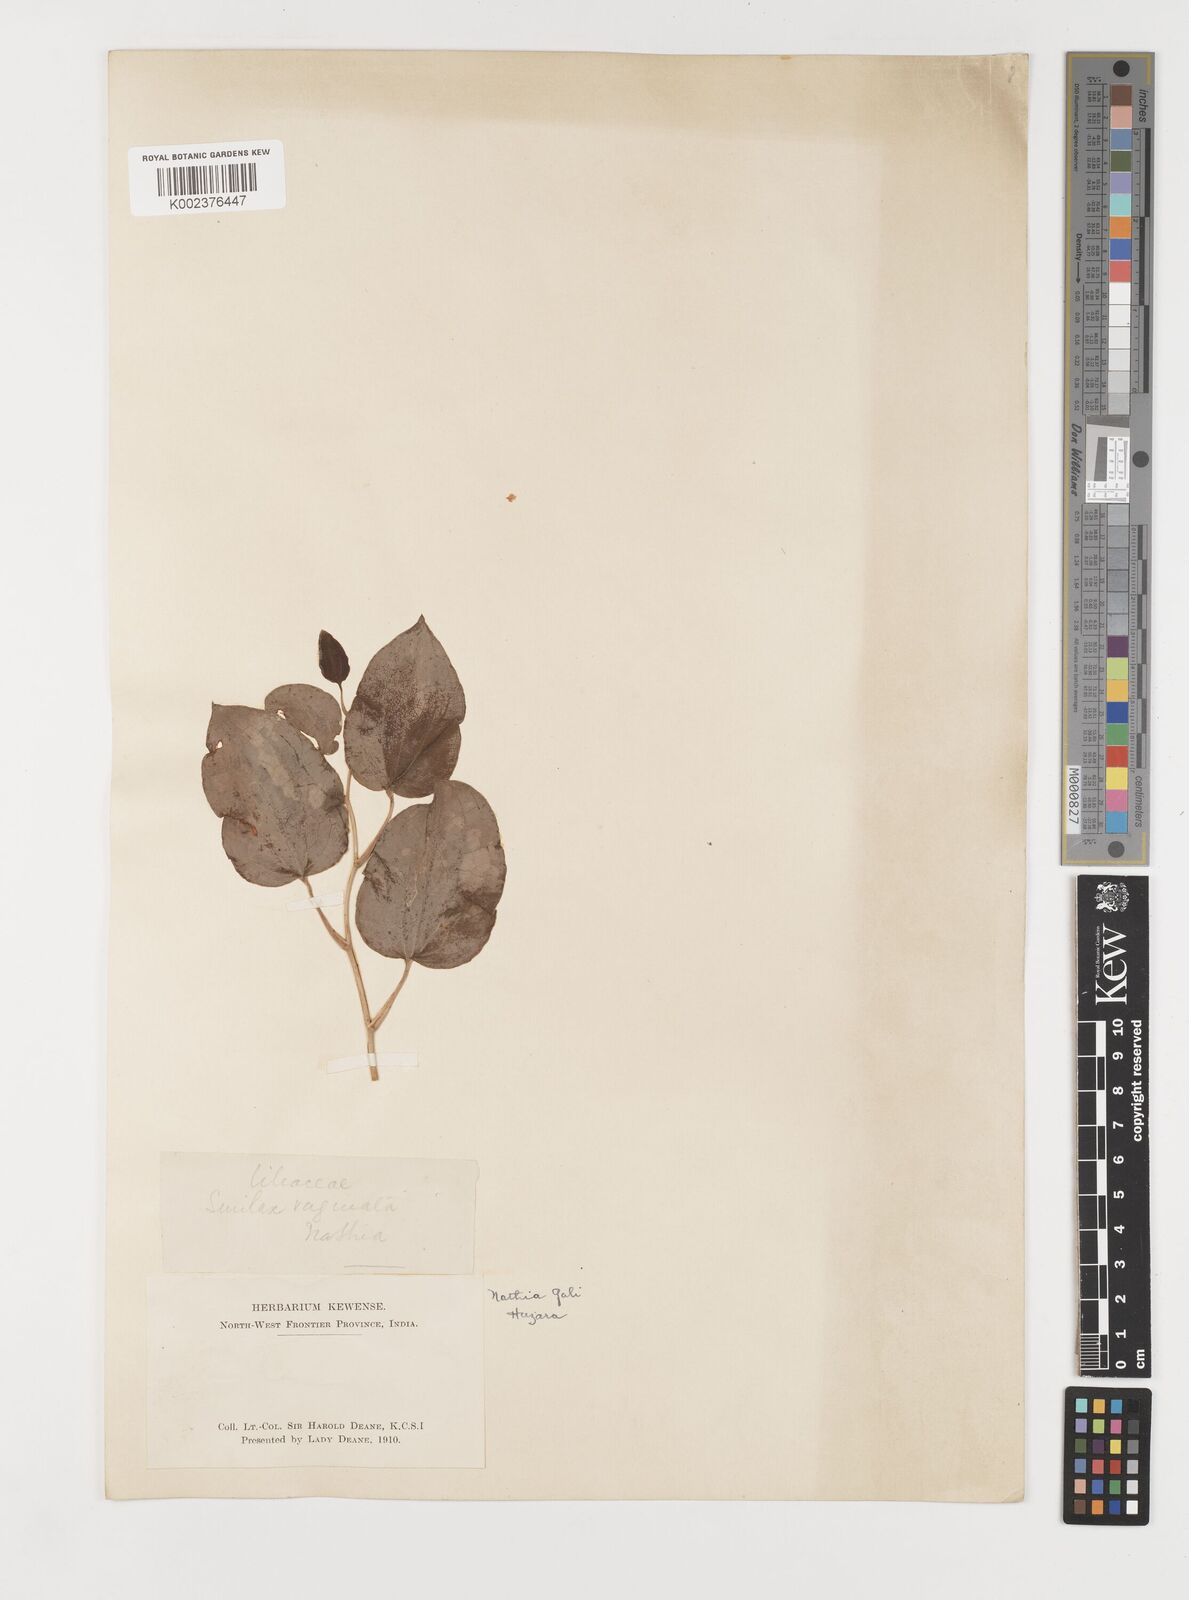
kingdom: Plantae
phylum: Tracheophyta
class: Liliopsida
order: Liliales
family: Smilacaceae
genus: Smilax
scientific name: Smilax vaginata
